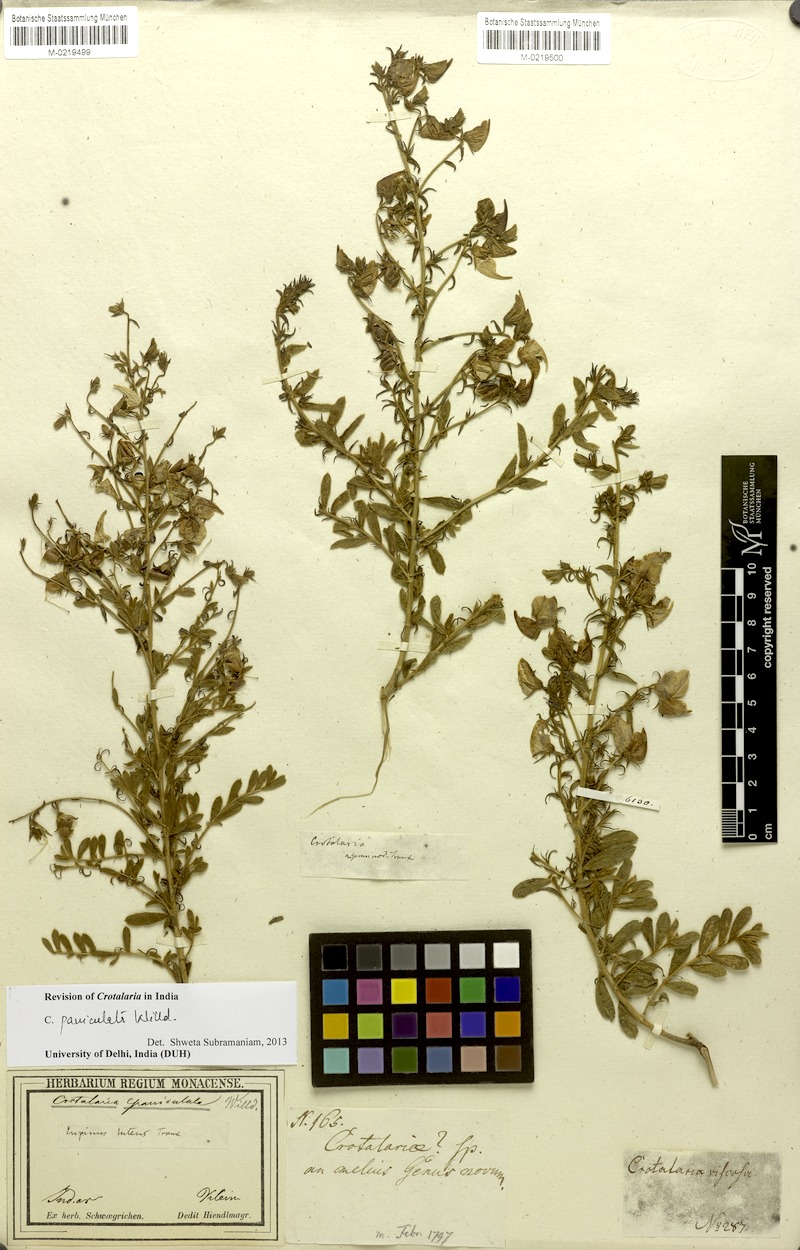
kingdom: Plantae
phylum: Tracheophyta
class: Magnoliopsida
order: Fabales
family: Fabaceae
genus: Crotalaria
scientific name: Crotalaria paniculata
